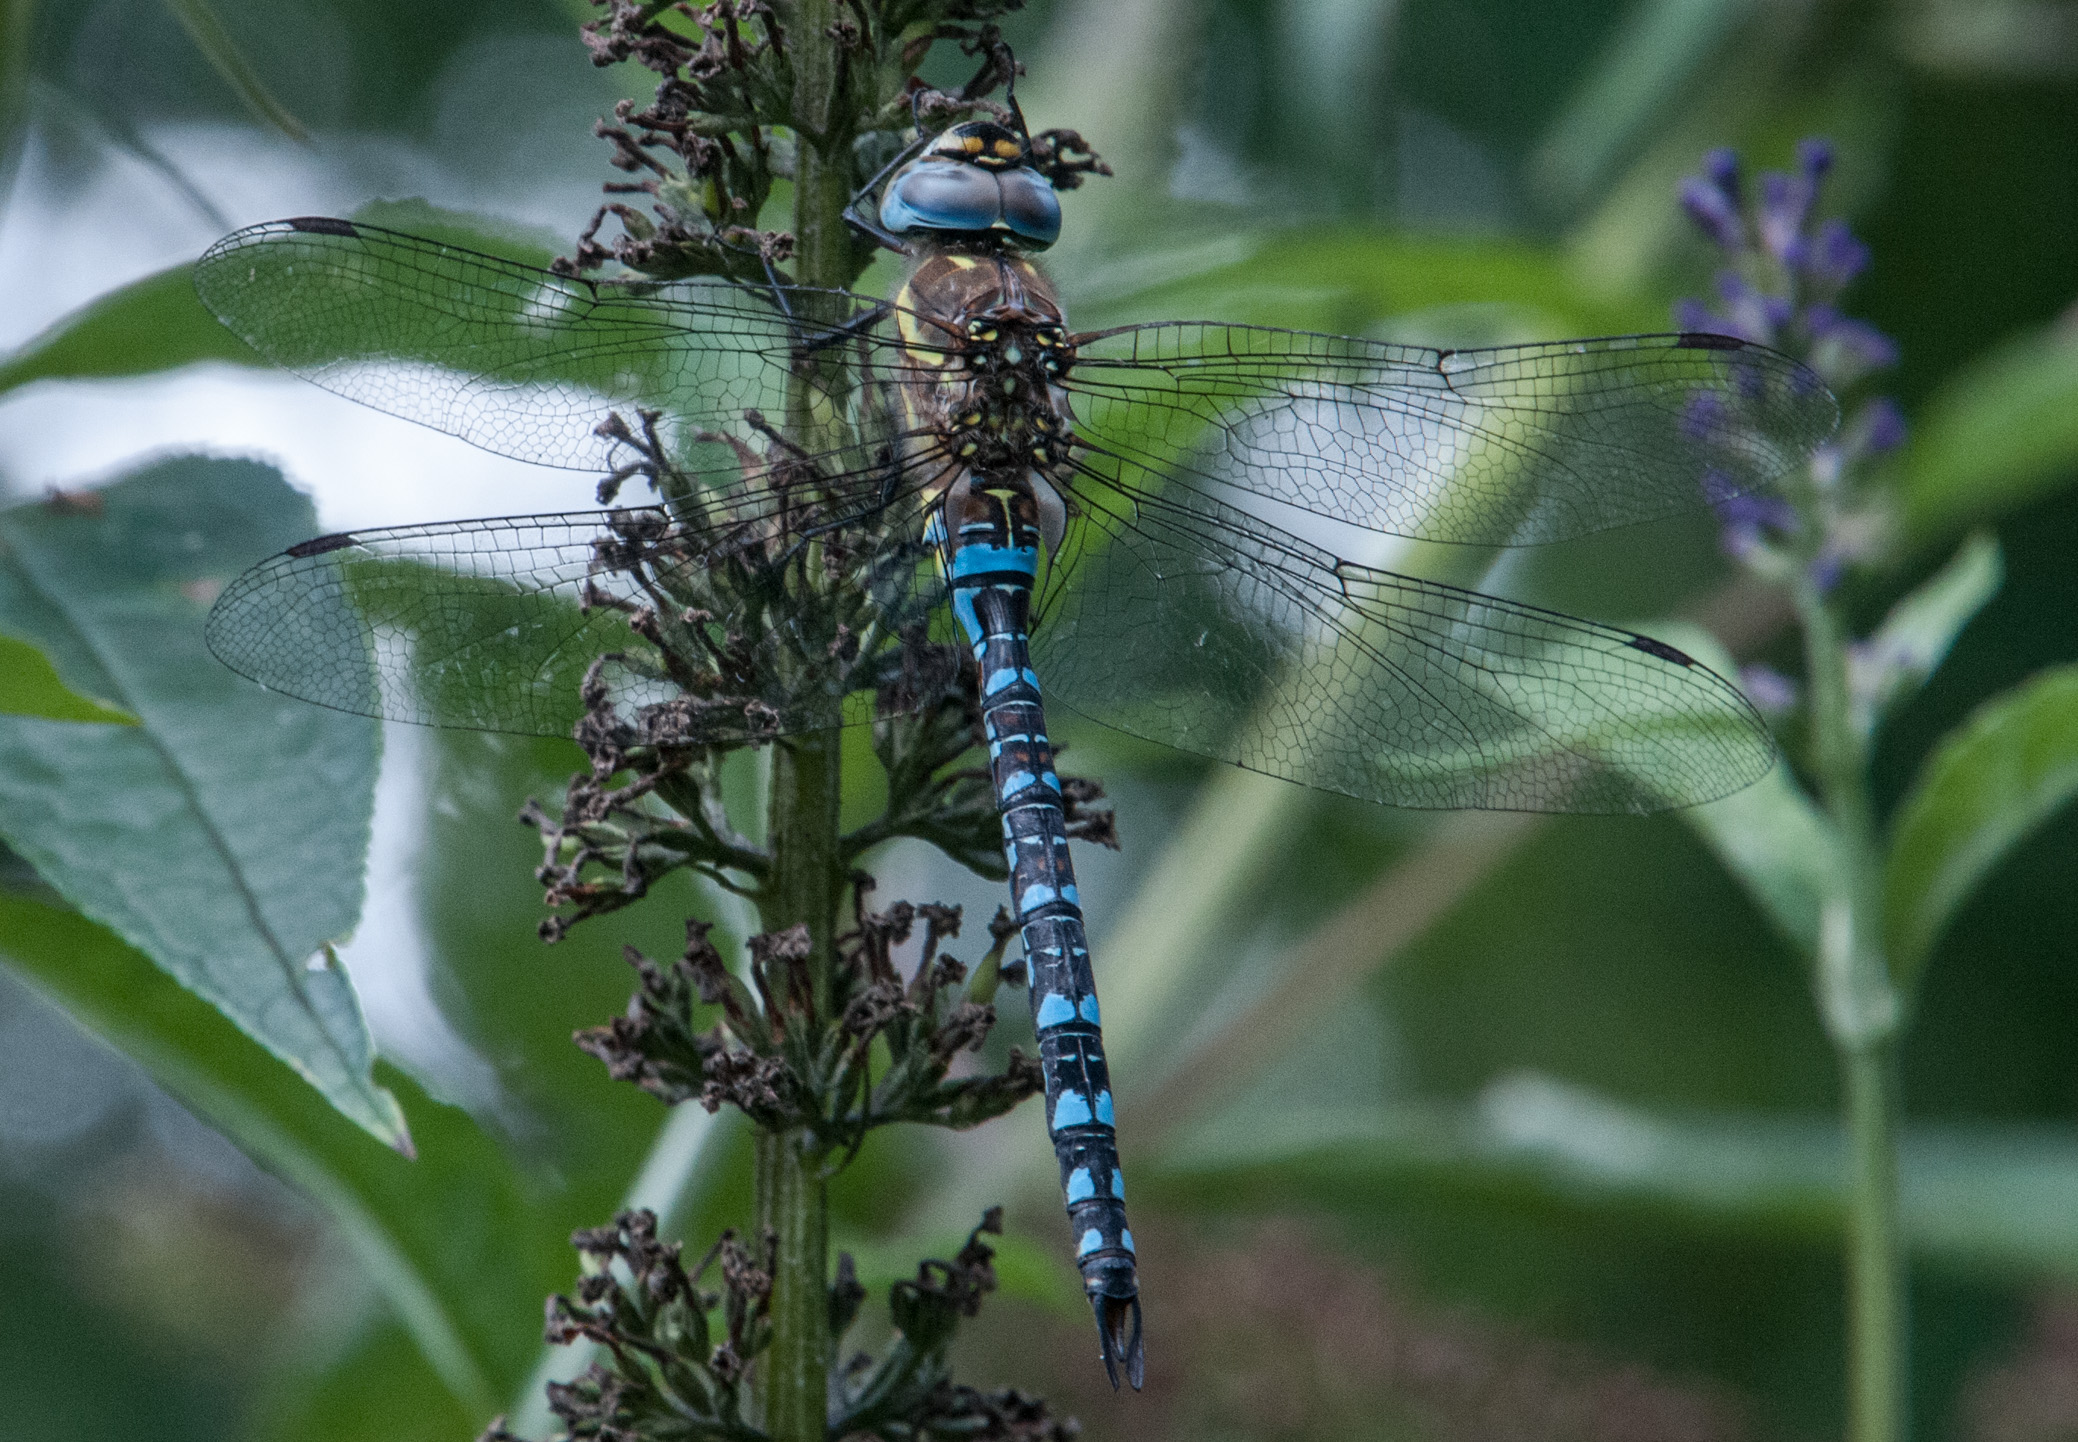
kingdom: Animalia
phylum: Arthropoda
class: Insecta
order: Odonata
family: Aeshnidae
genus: Aeshna
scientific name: Aeshna mixta
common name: Migrant hawker
